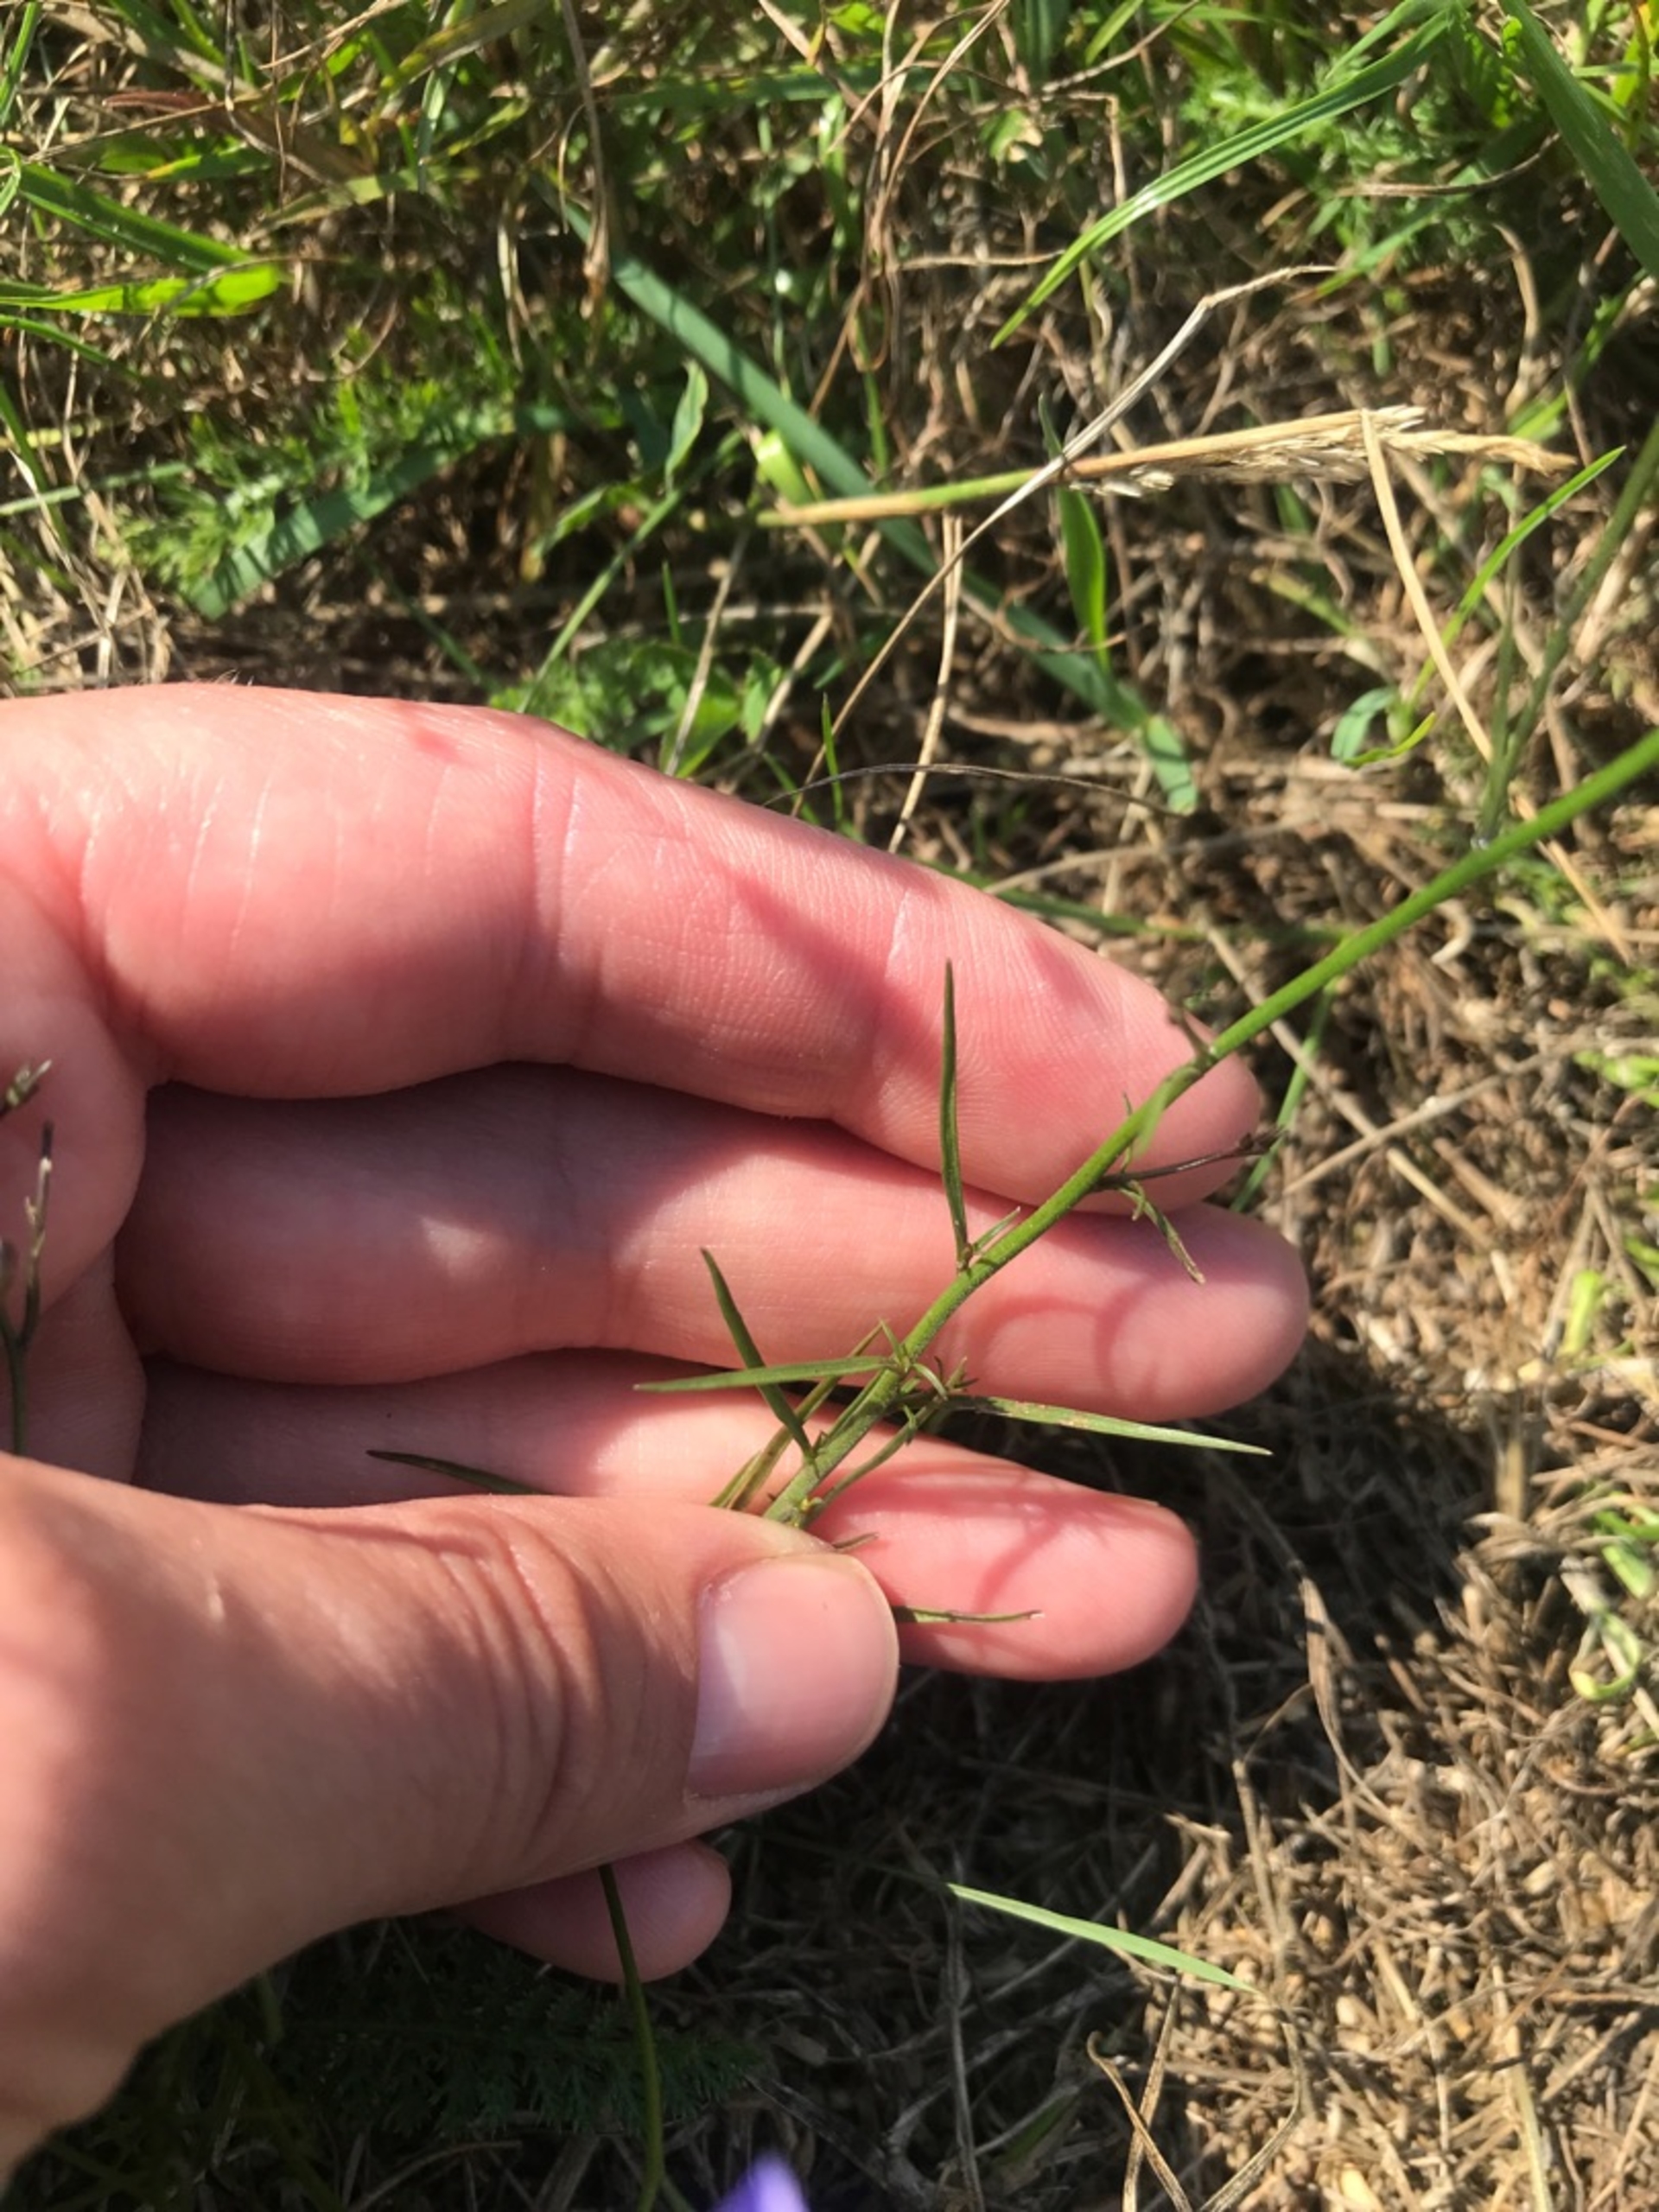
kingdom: Plantae
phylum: Tracheophyta
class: Magnoliopsida
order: Asterales
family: Campanulaceae
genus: Campanula
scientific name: Campanula rotundifolia
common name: Liden klokke
